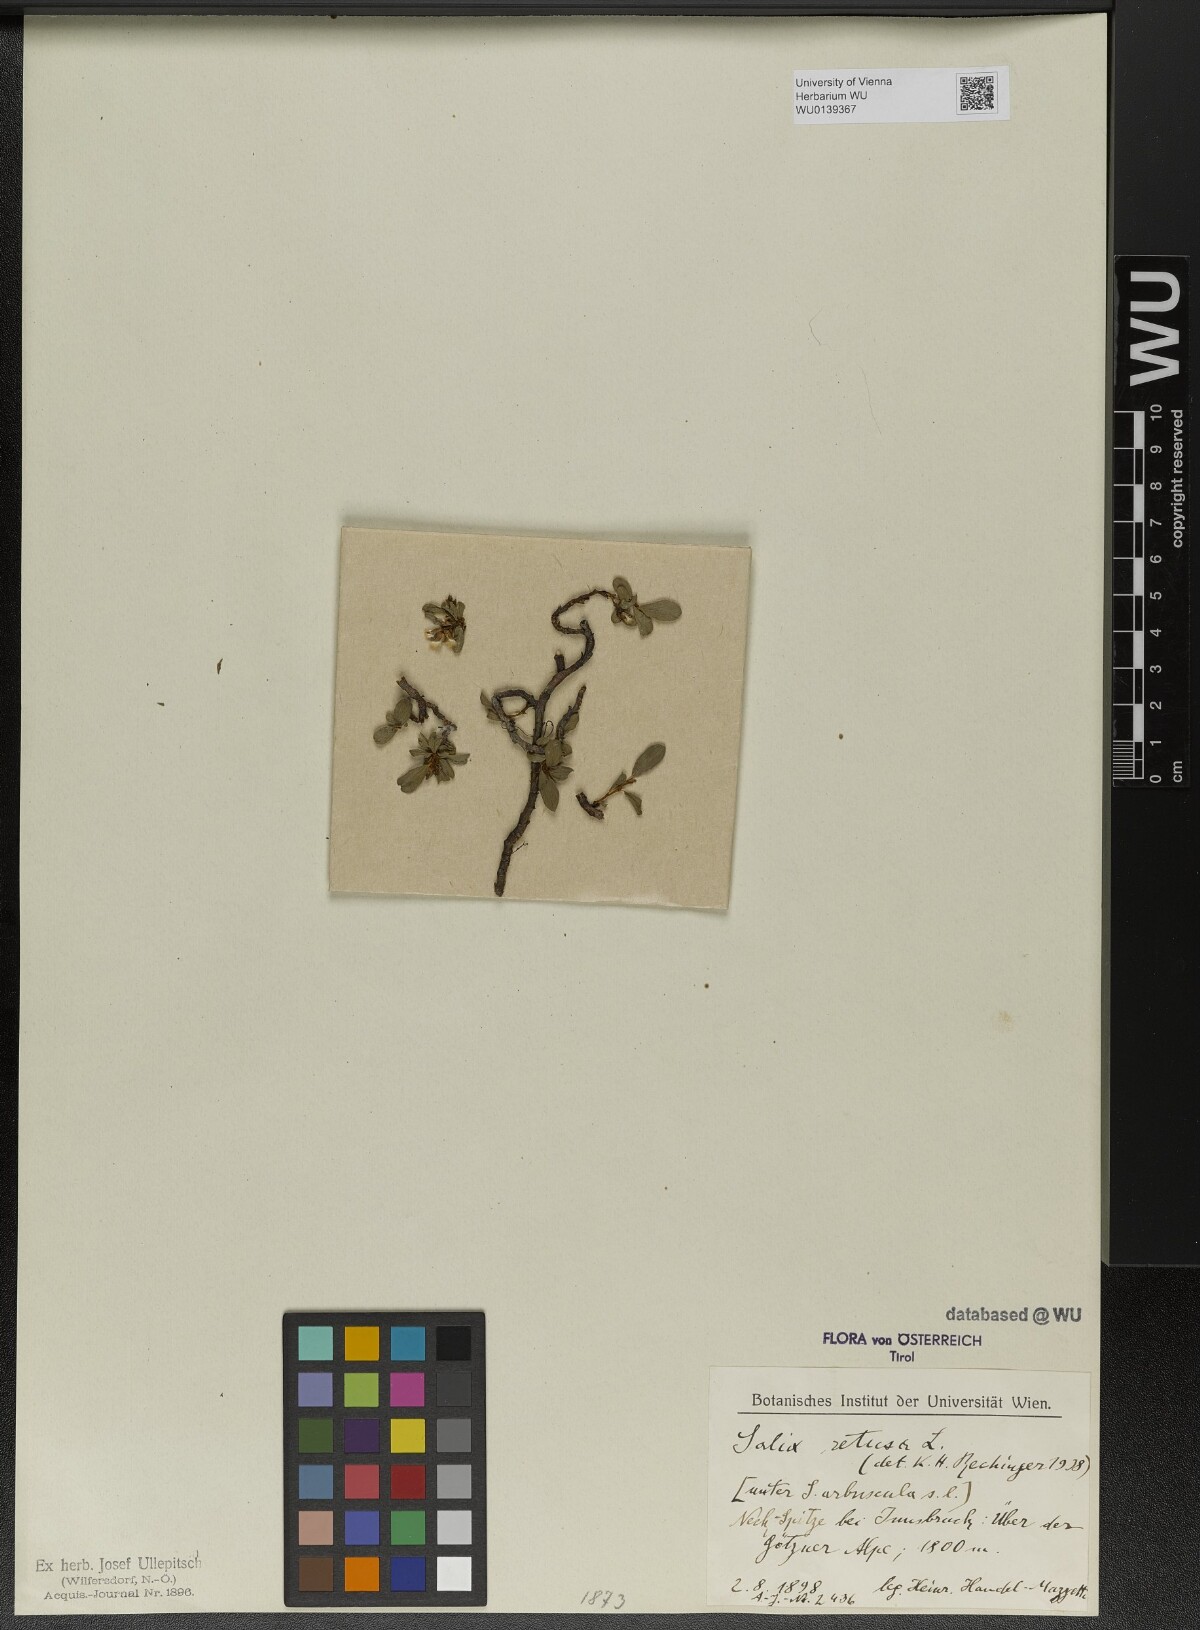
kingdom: Plantae
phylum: Tracheophyta
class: Magnoliopsida
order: Malpighiales
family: Salicaceae
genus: Salix
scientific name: Salix retusa
